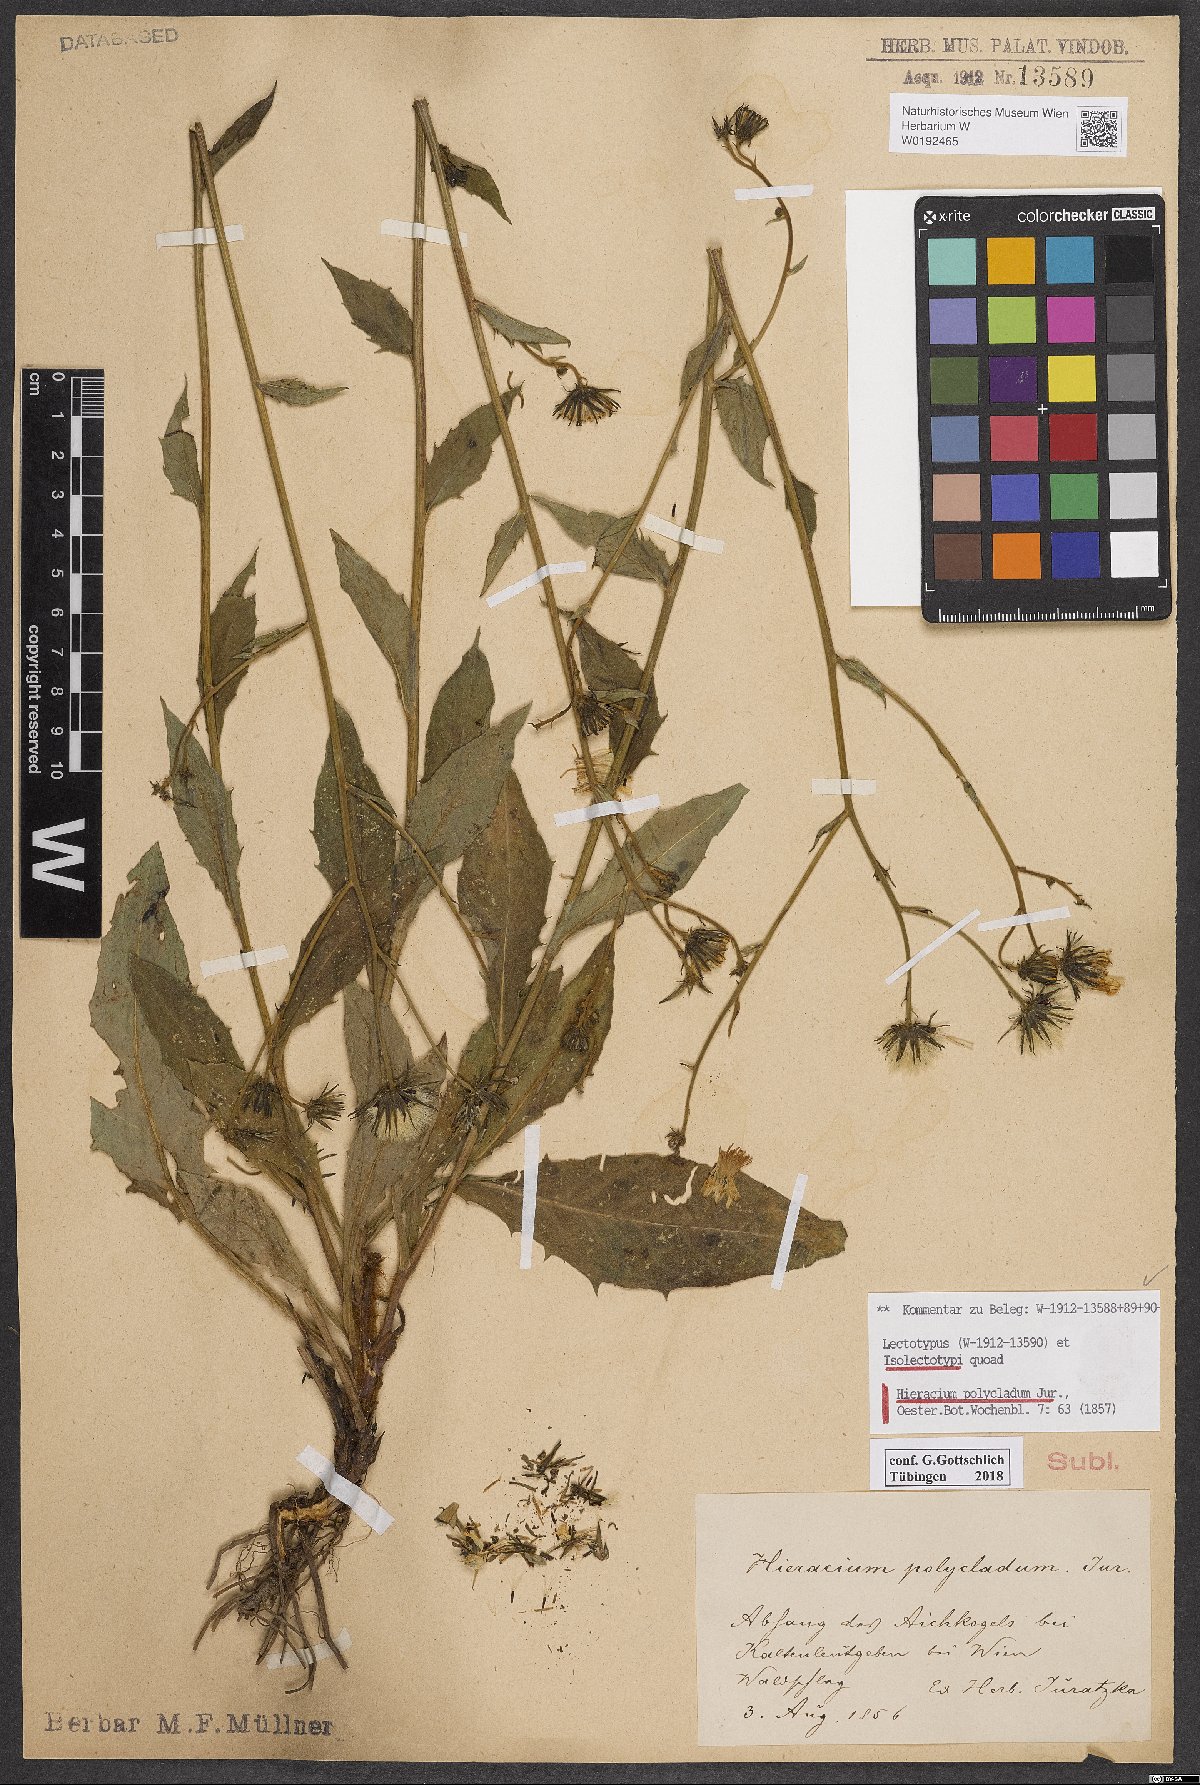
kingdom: Plantae
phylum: Tracheophyta
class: Magnoliopsida
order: Asterales
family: Asteraceae
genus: Hieracium
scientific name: Hieracium polycladum
